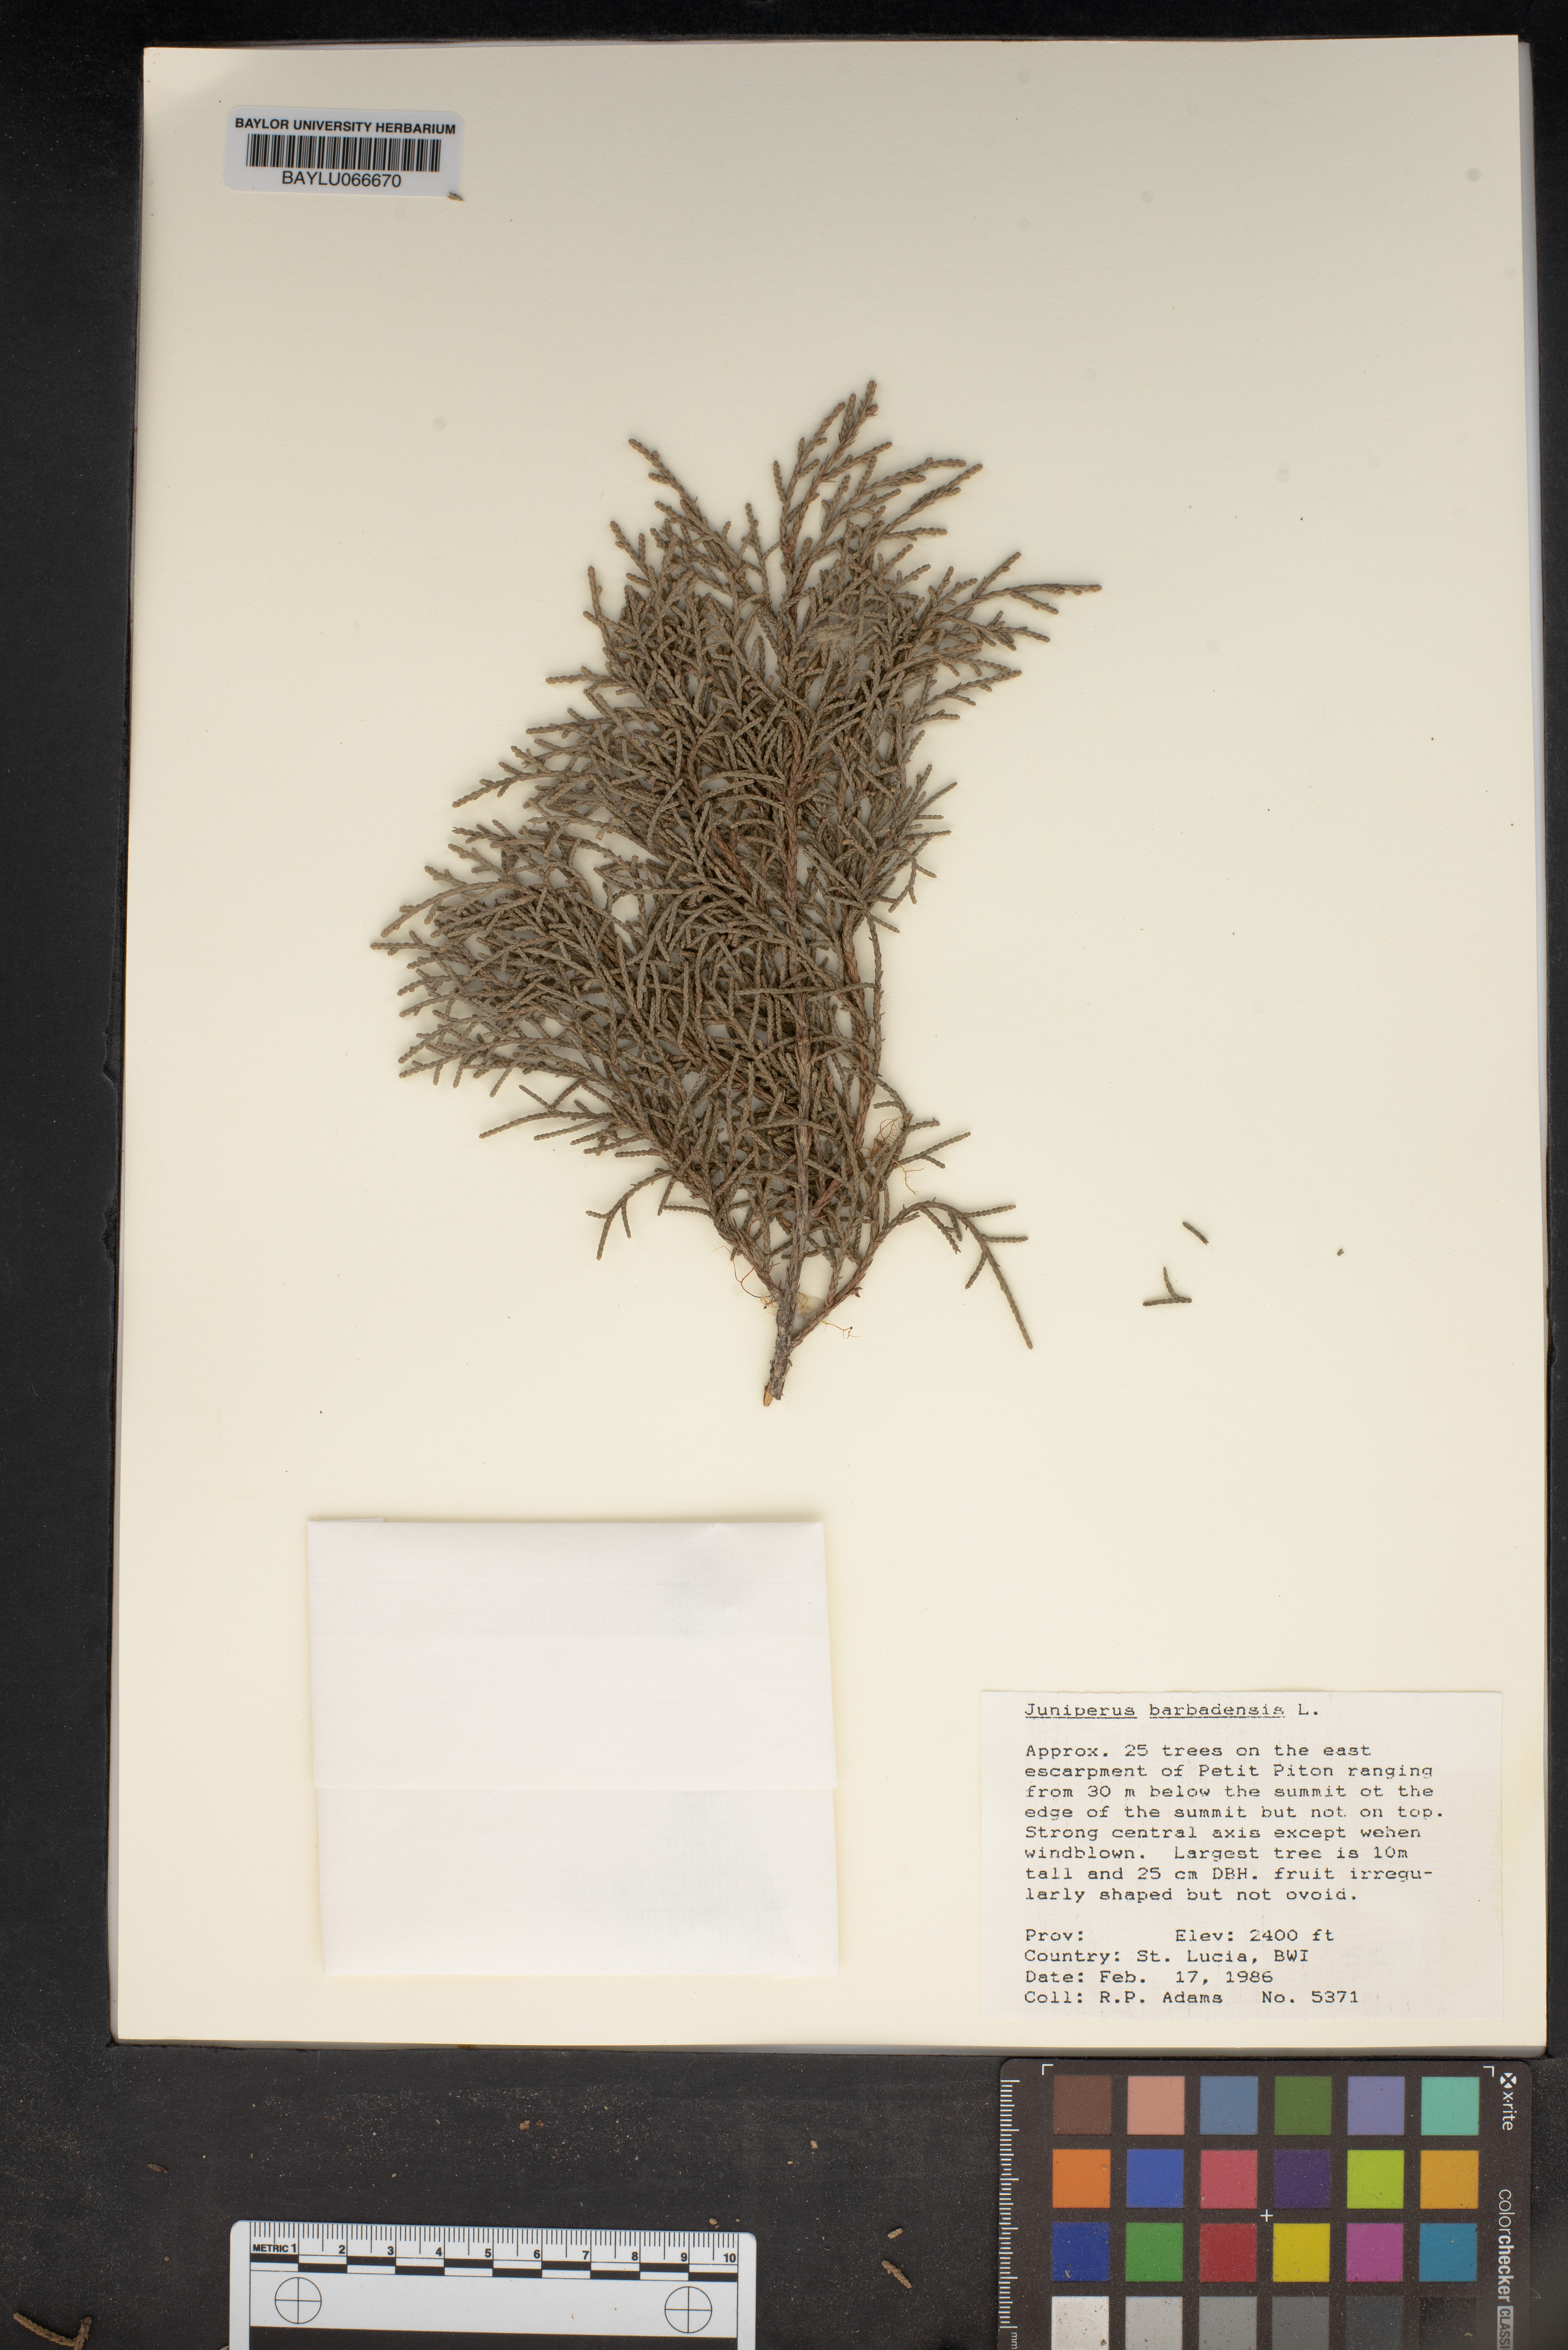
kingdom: Plantae
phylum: Tracheophyta
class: Pinopsida
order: Pinales
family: Cupressaceae
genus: Juniperus
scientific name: Juniperus barbadensis
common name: West indies juniper
